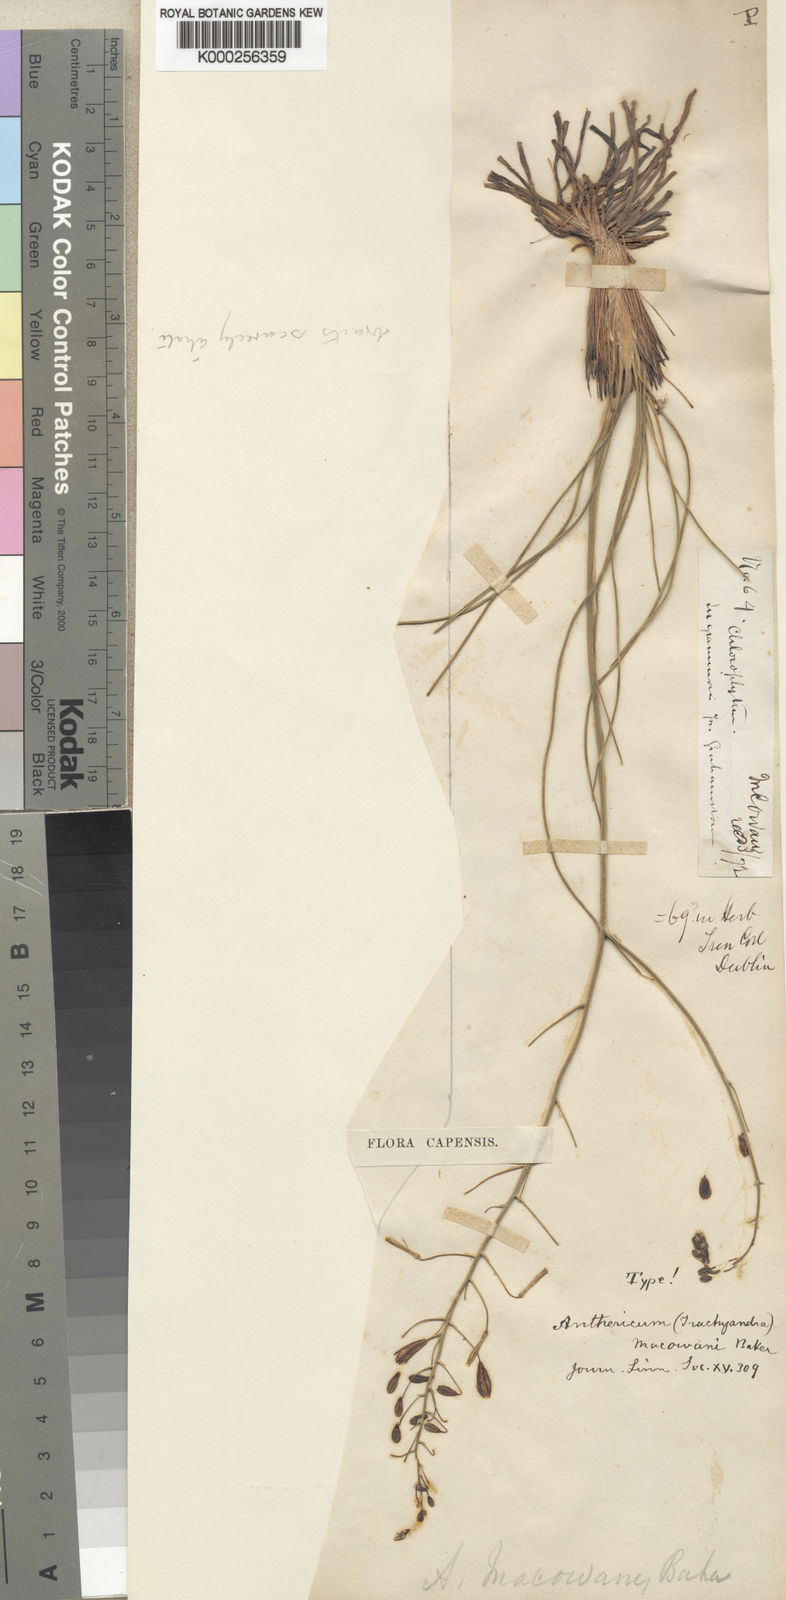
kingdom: Plantae
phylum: Tracheophyta
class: Liliopsida
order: Asparagales
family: Asphodelaceae
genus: Trachyandra
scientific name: Trachyandra asperata
